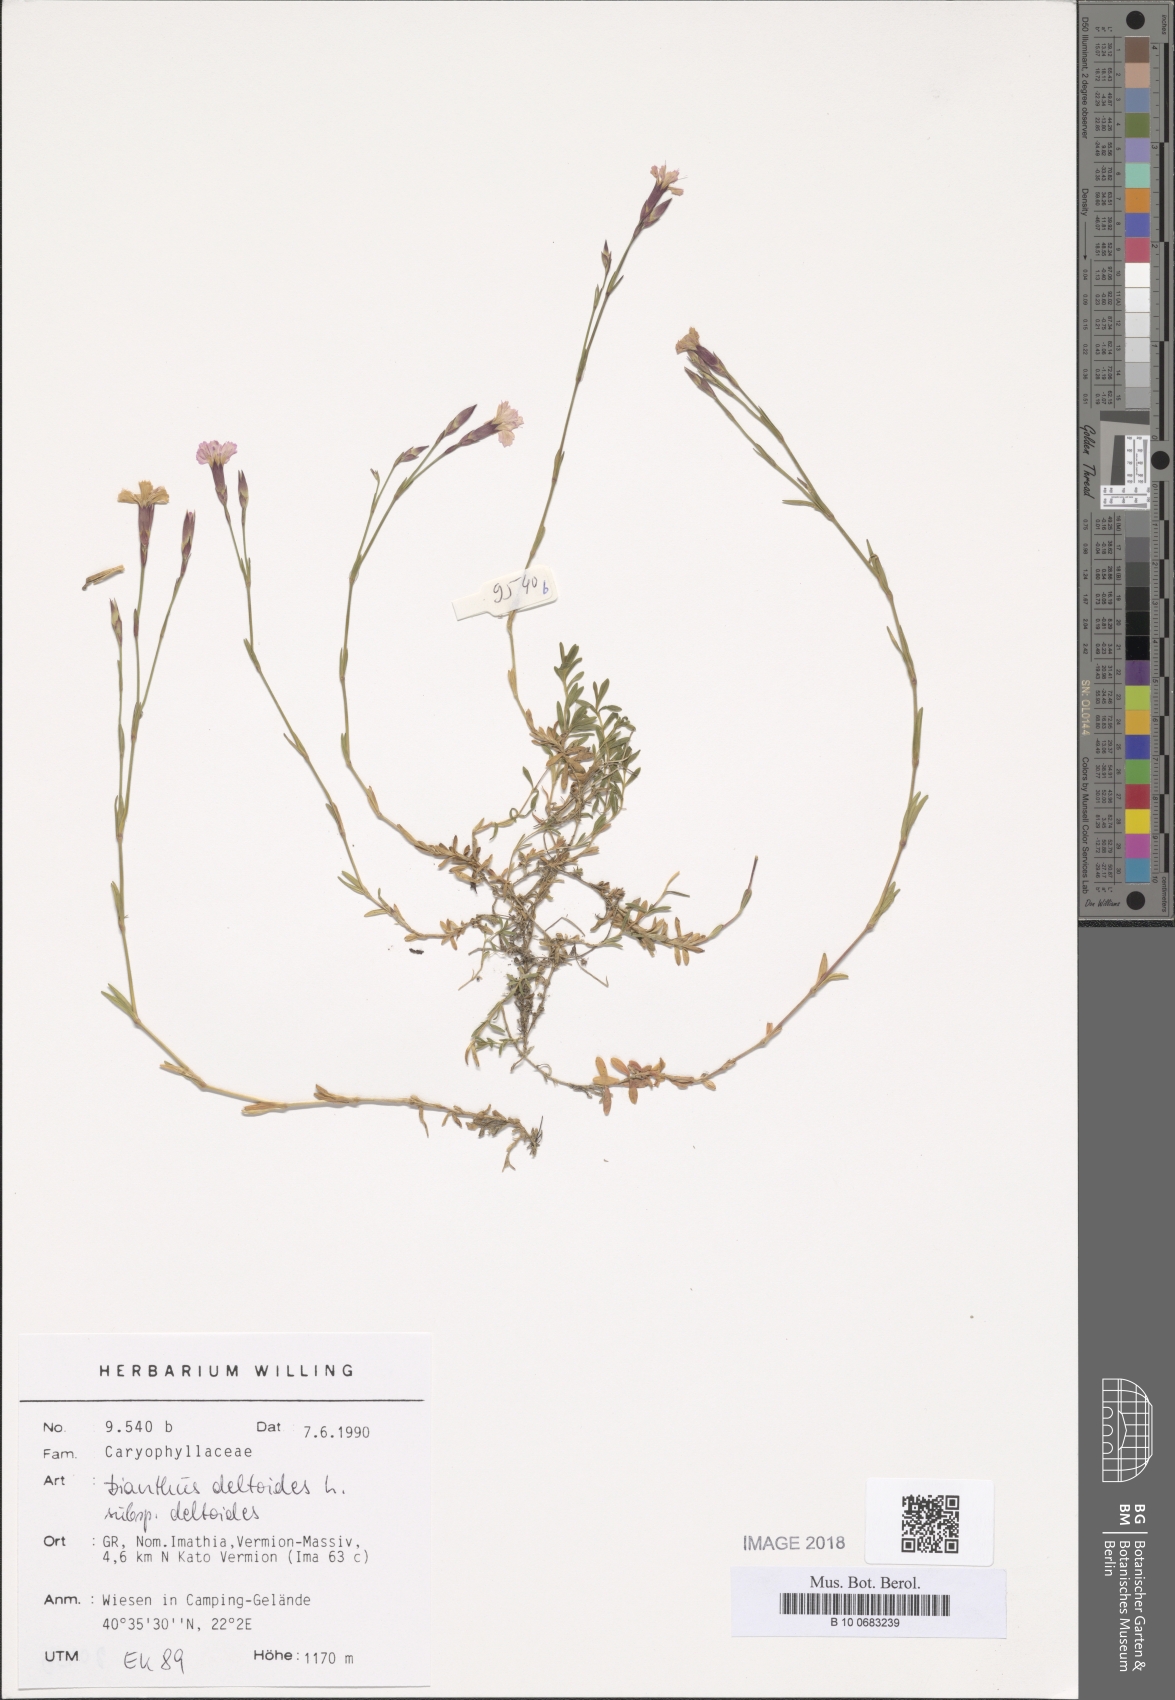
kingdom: Plantae
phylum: Tracheophyta
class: Magnoliopsida
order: Caryophyllales
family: Caryophyllaceae
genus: Dianthus
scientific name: Dianthus deltoides
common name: Maiden pink
